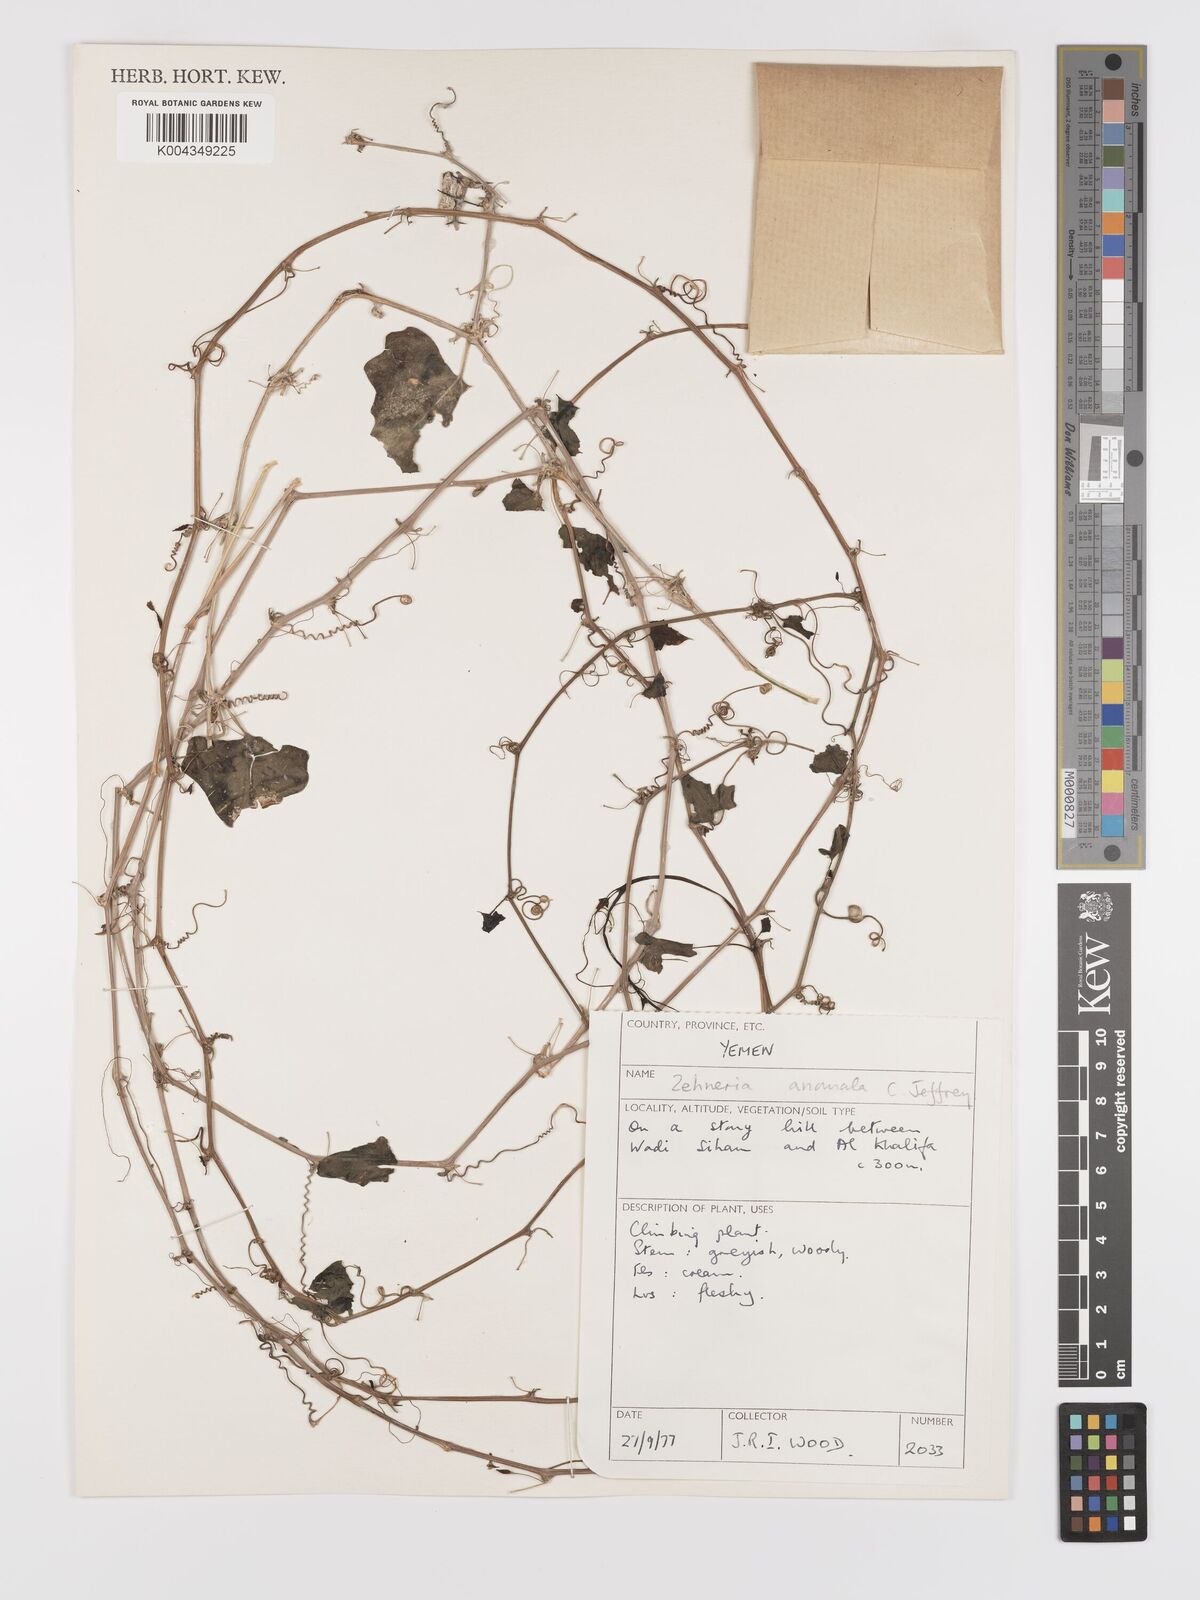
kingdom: Plantae
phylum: Tracheophyta
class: Magnoliopsida
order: Cucurbitales
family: Cucurbitaceae
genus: Zehneria
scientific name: Zehneria anomala
